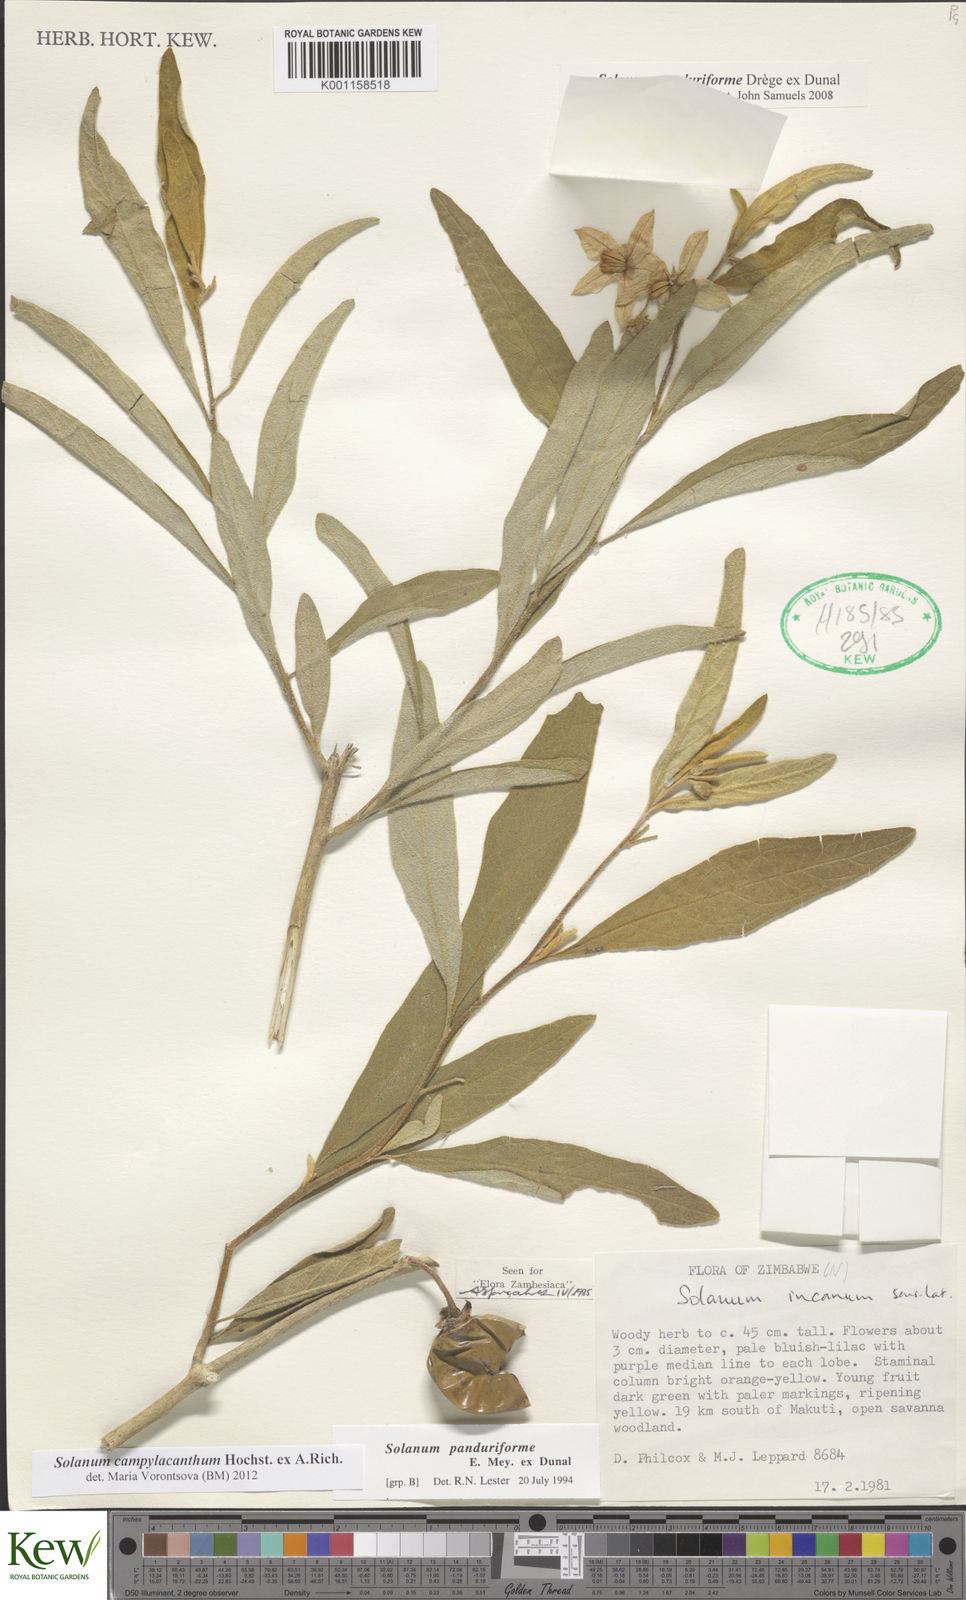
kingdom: Plantae
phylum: Tracheophyta
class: Magnoliopsida
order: Solanales
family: Solanaceae
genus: Solanum
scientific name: Solanum campylacanthum
